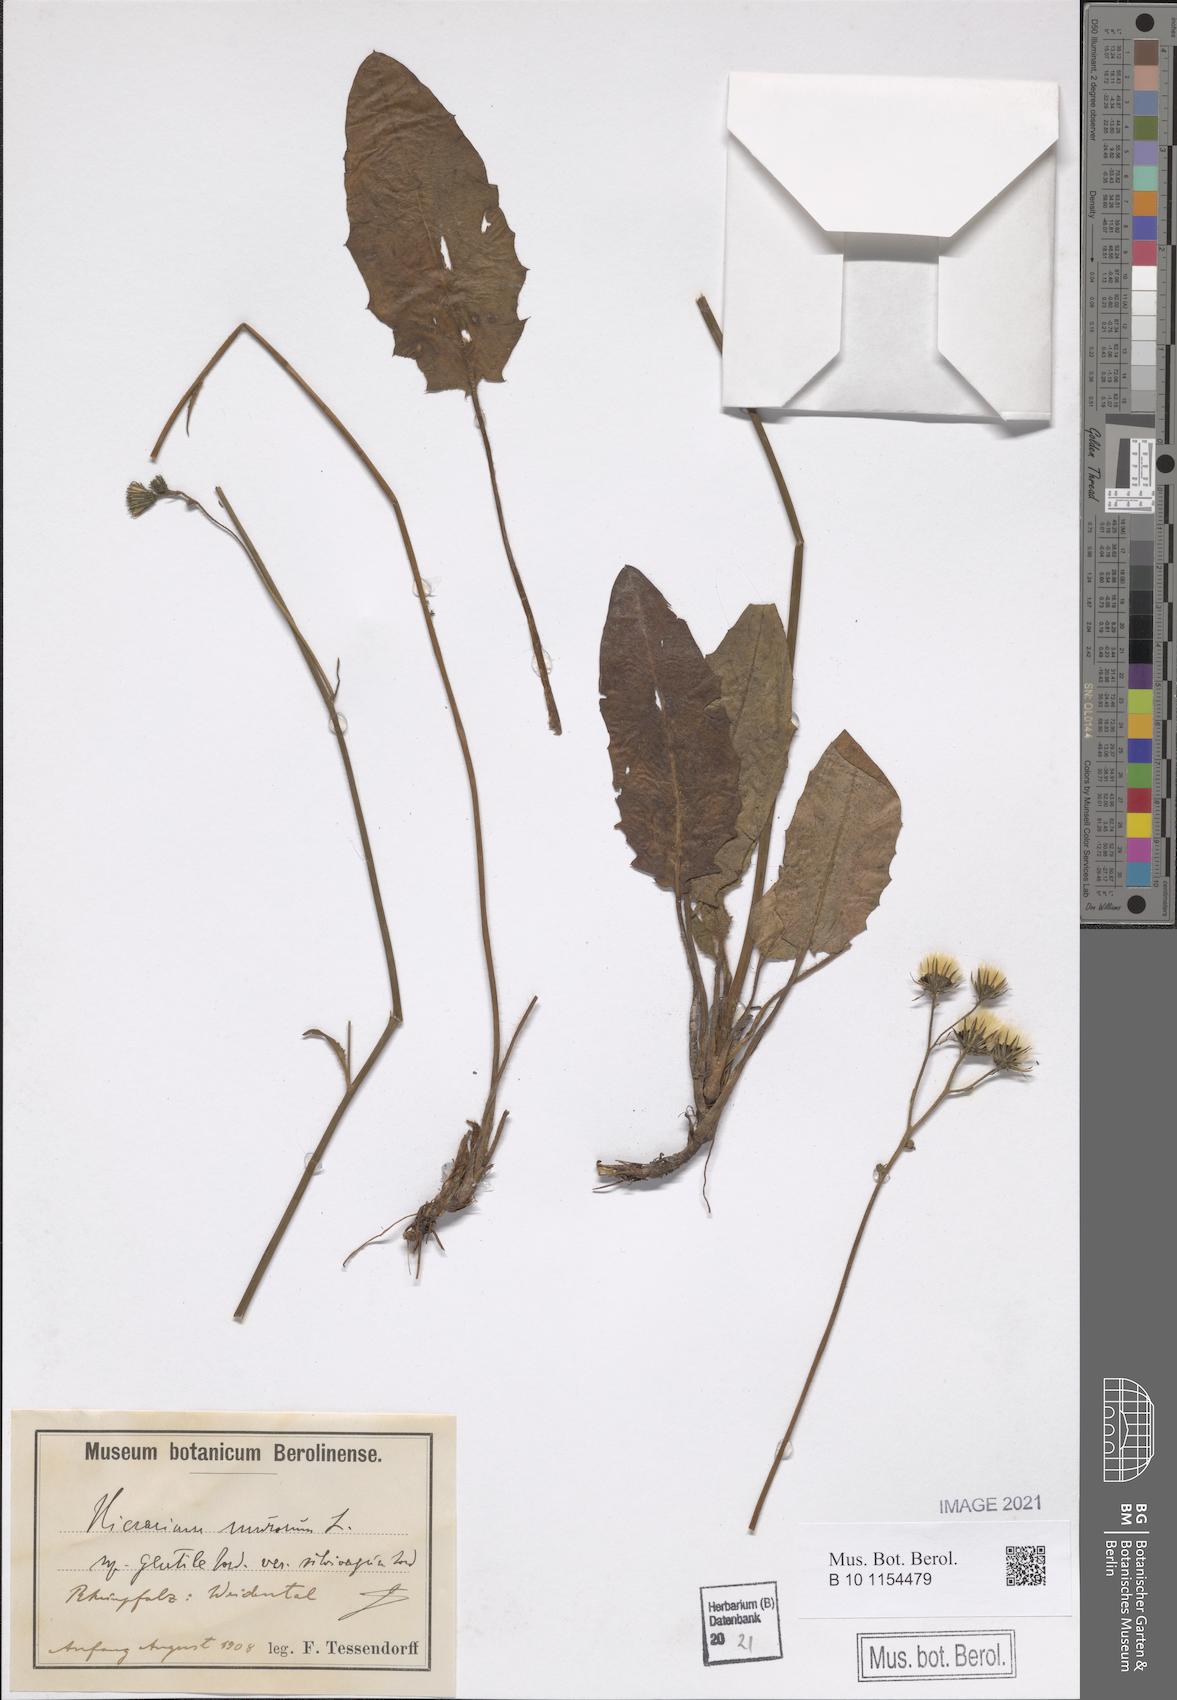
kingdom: Plantae
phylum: Tracheophyta
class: Magnoliopsida
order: Asterales
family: Asteraceae
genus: Hieracium
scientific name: Hieracium murorum
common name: Wall hawkweed
